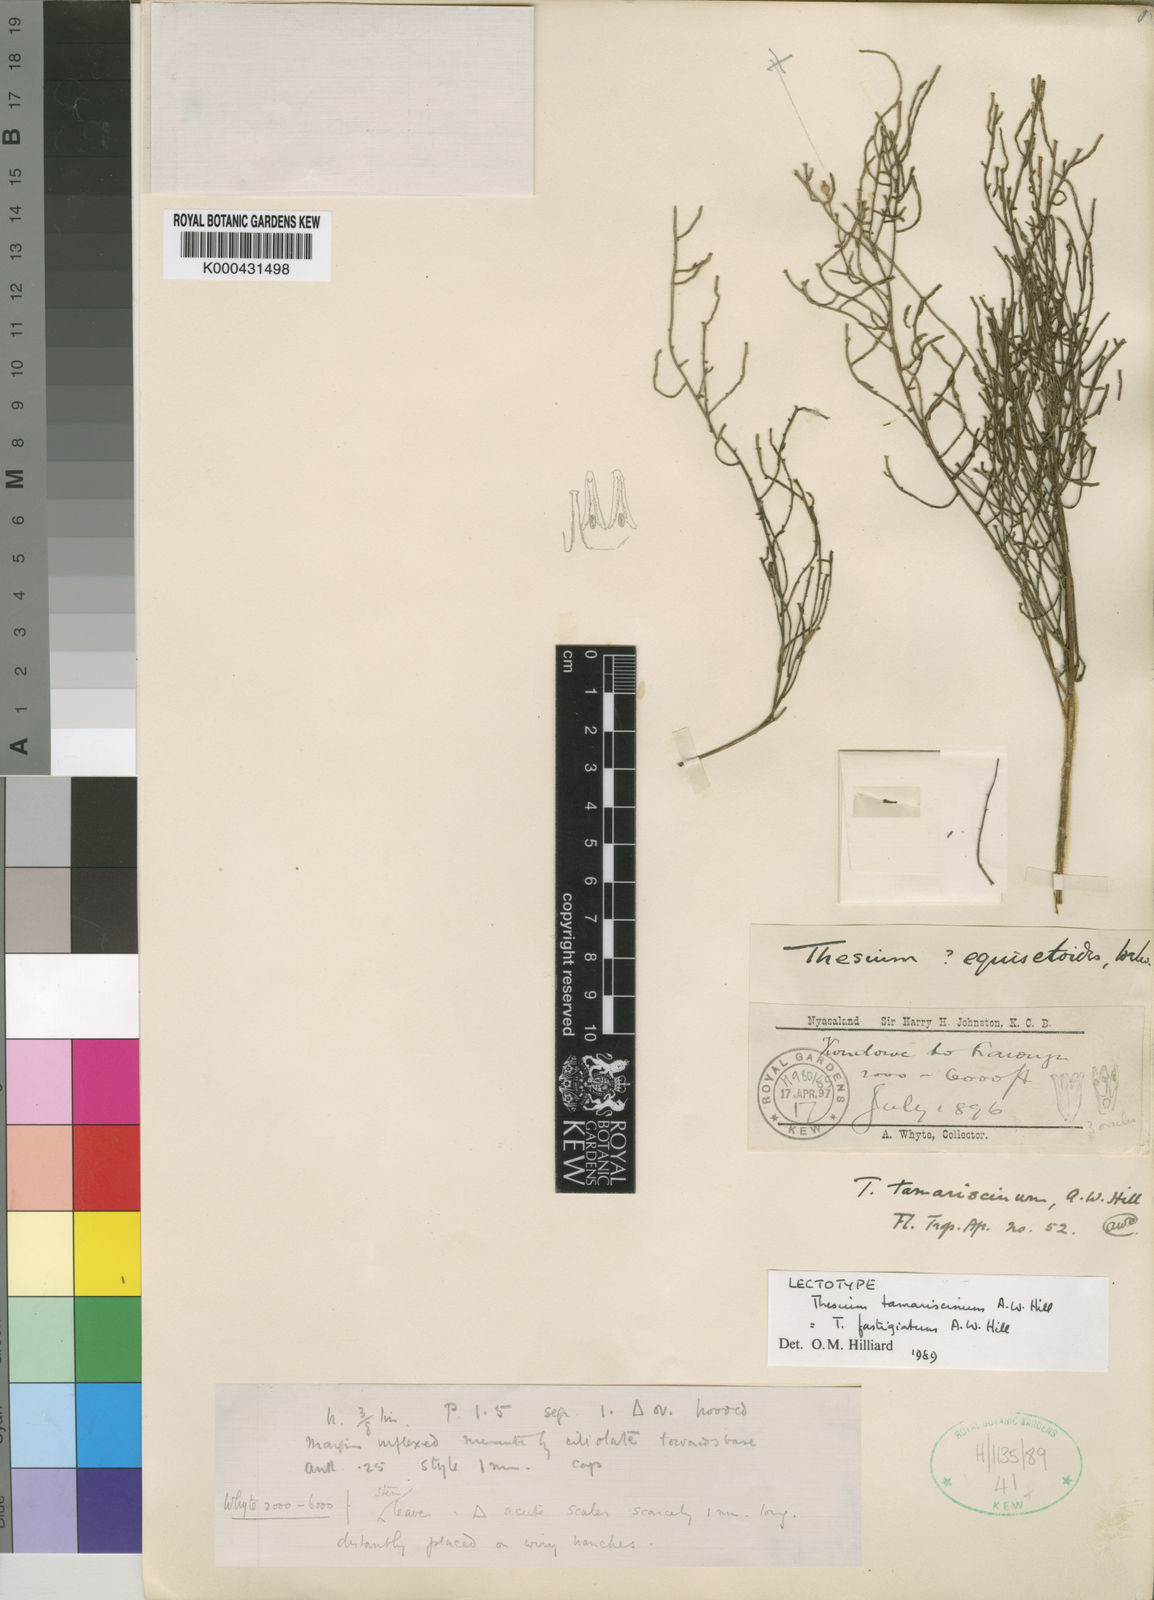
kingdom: Plantae
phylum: Tracheophyta
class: Magnoliopsida
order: Santalales
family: Thesiaceae
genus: Thesium
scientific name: Thesium fastigiatum
